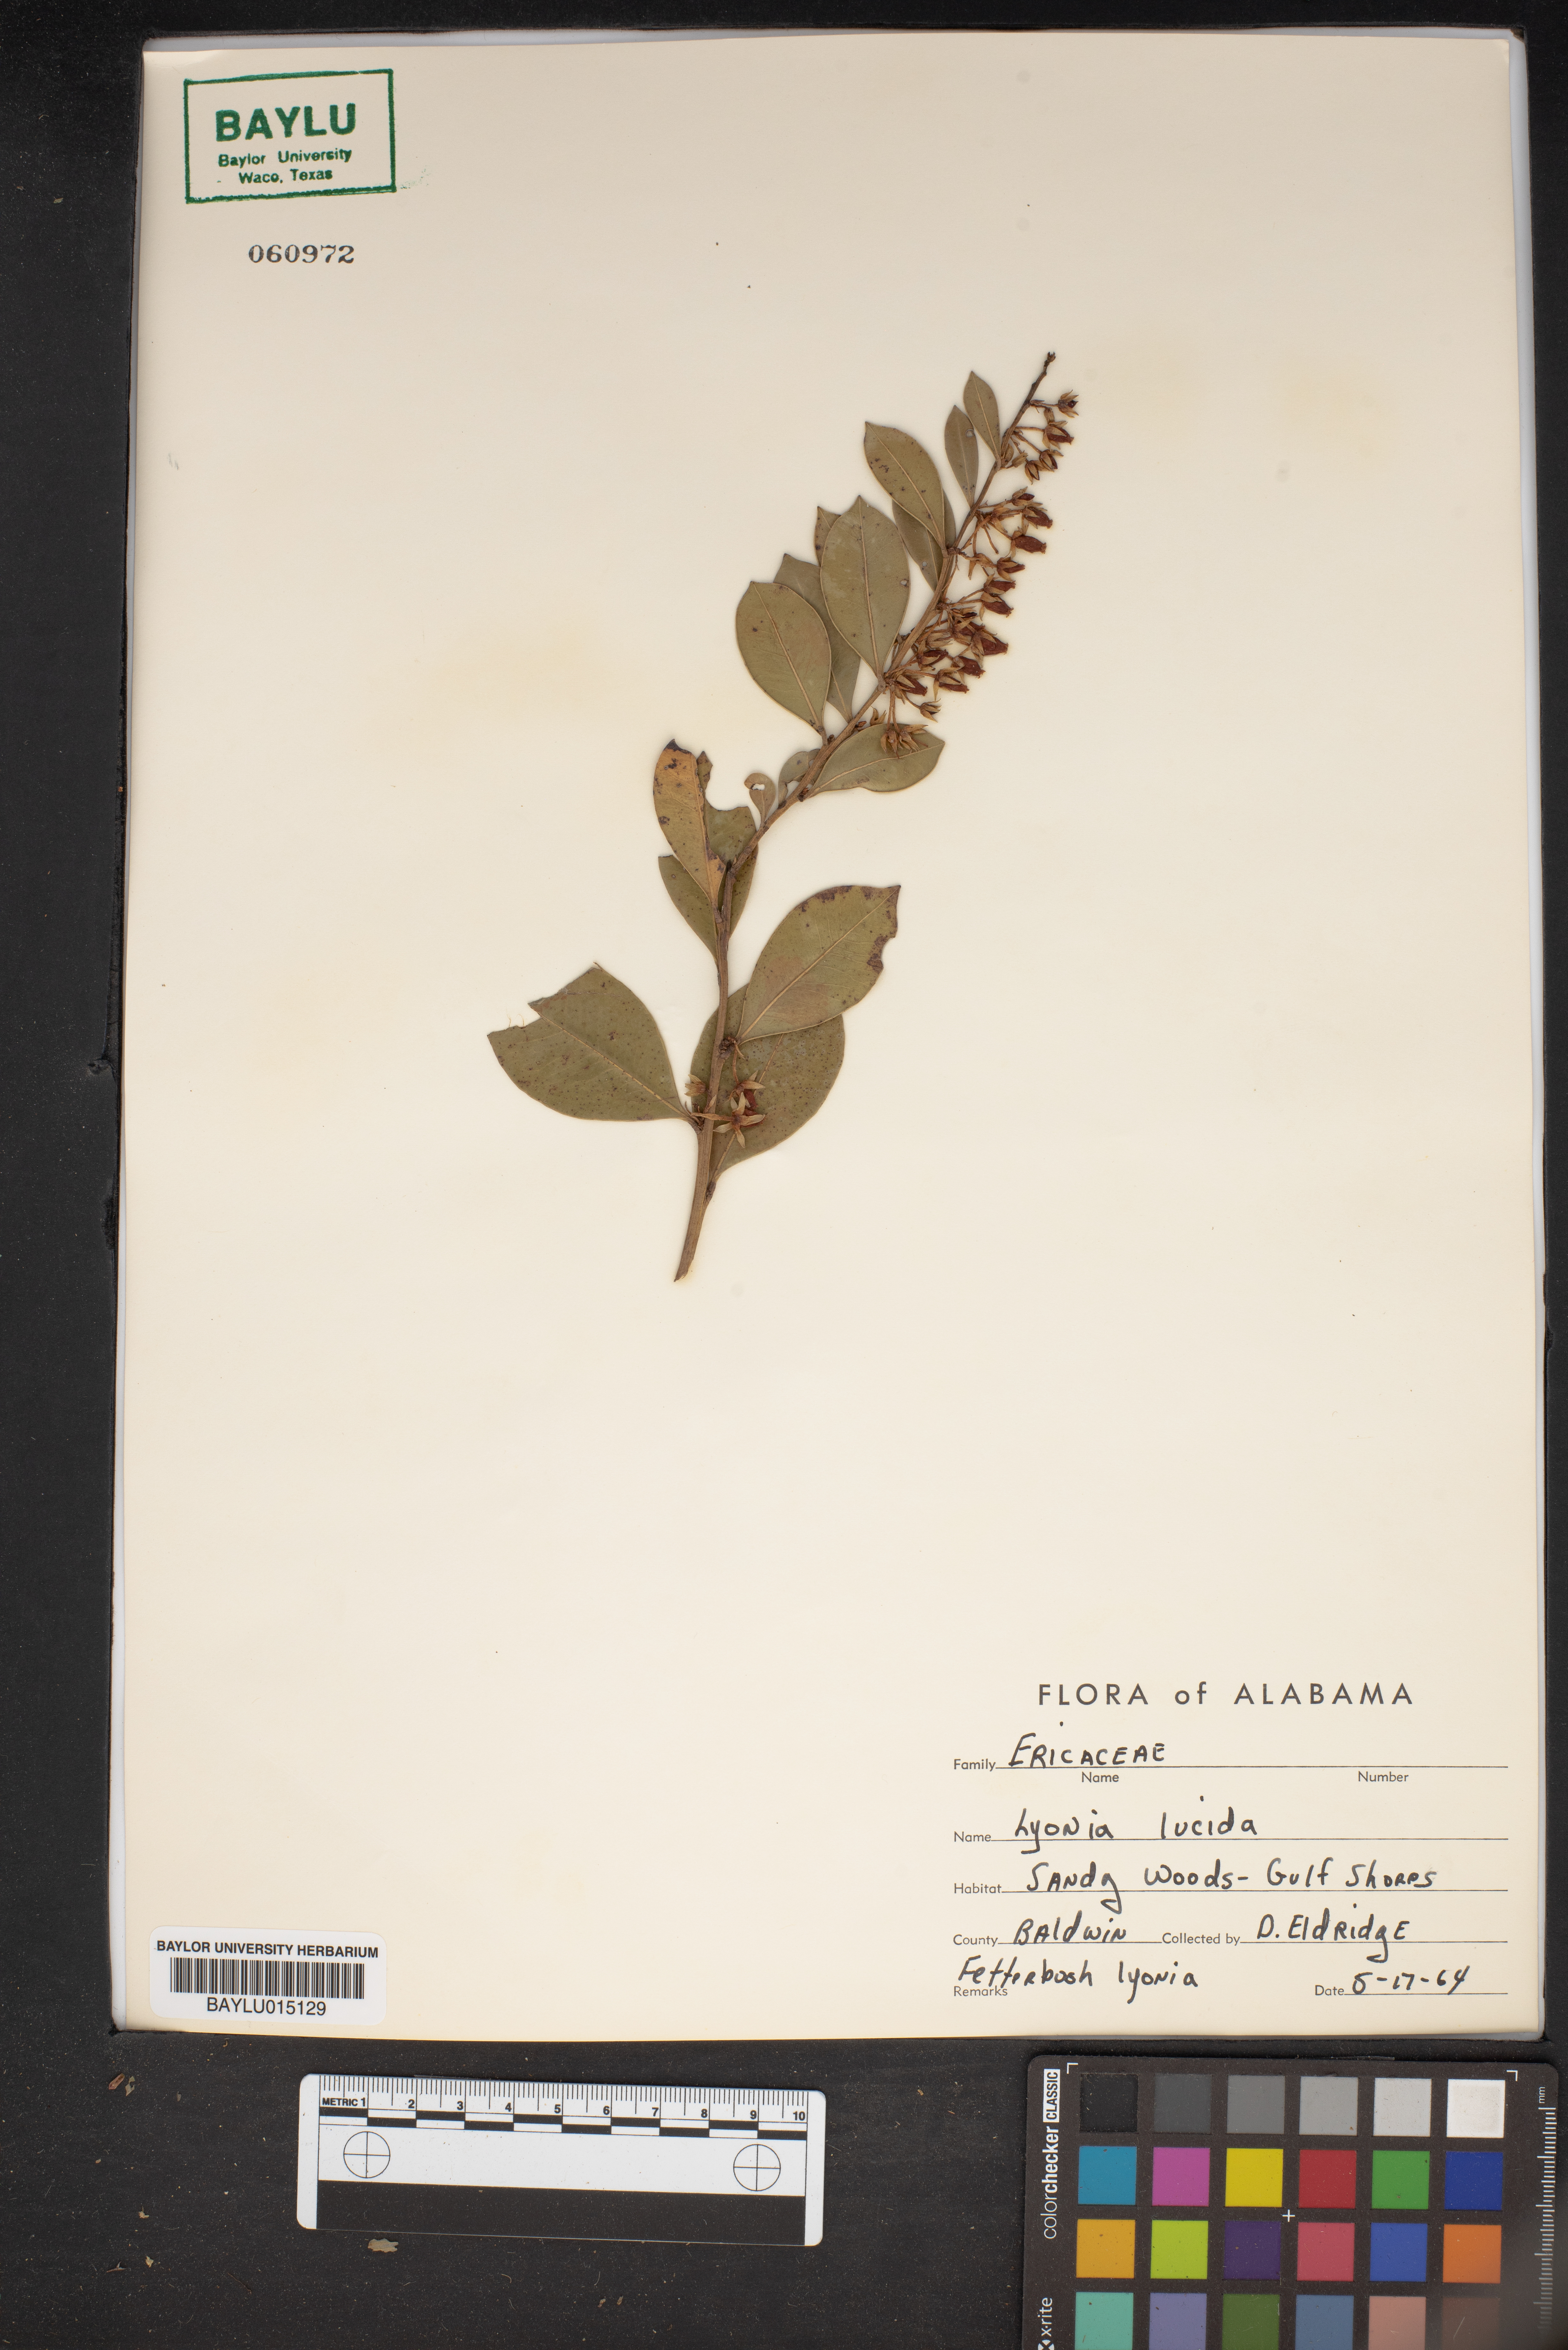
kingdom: Plantae
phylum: Tracheophyta
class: Magnoliopsida
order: Ericales
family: Ericaceae
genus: Lyonia
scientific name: Lyonia lucida
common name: Fetterbush
